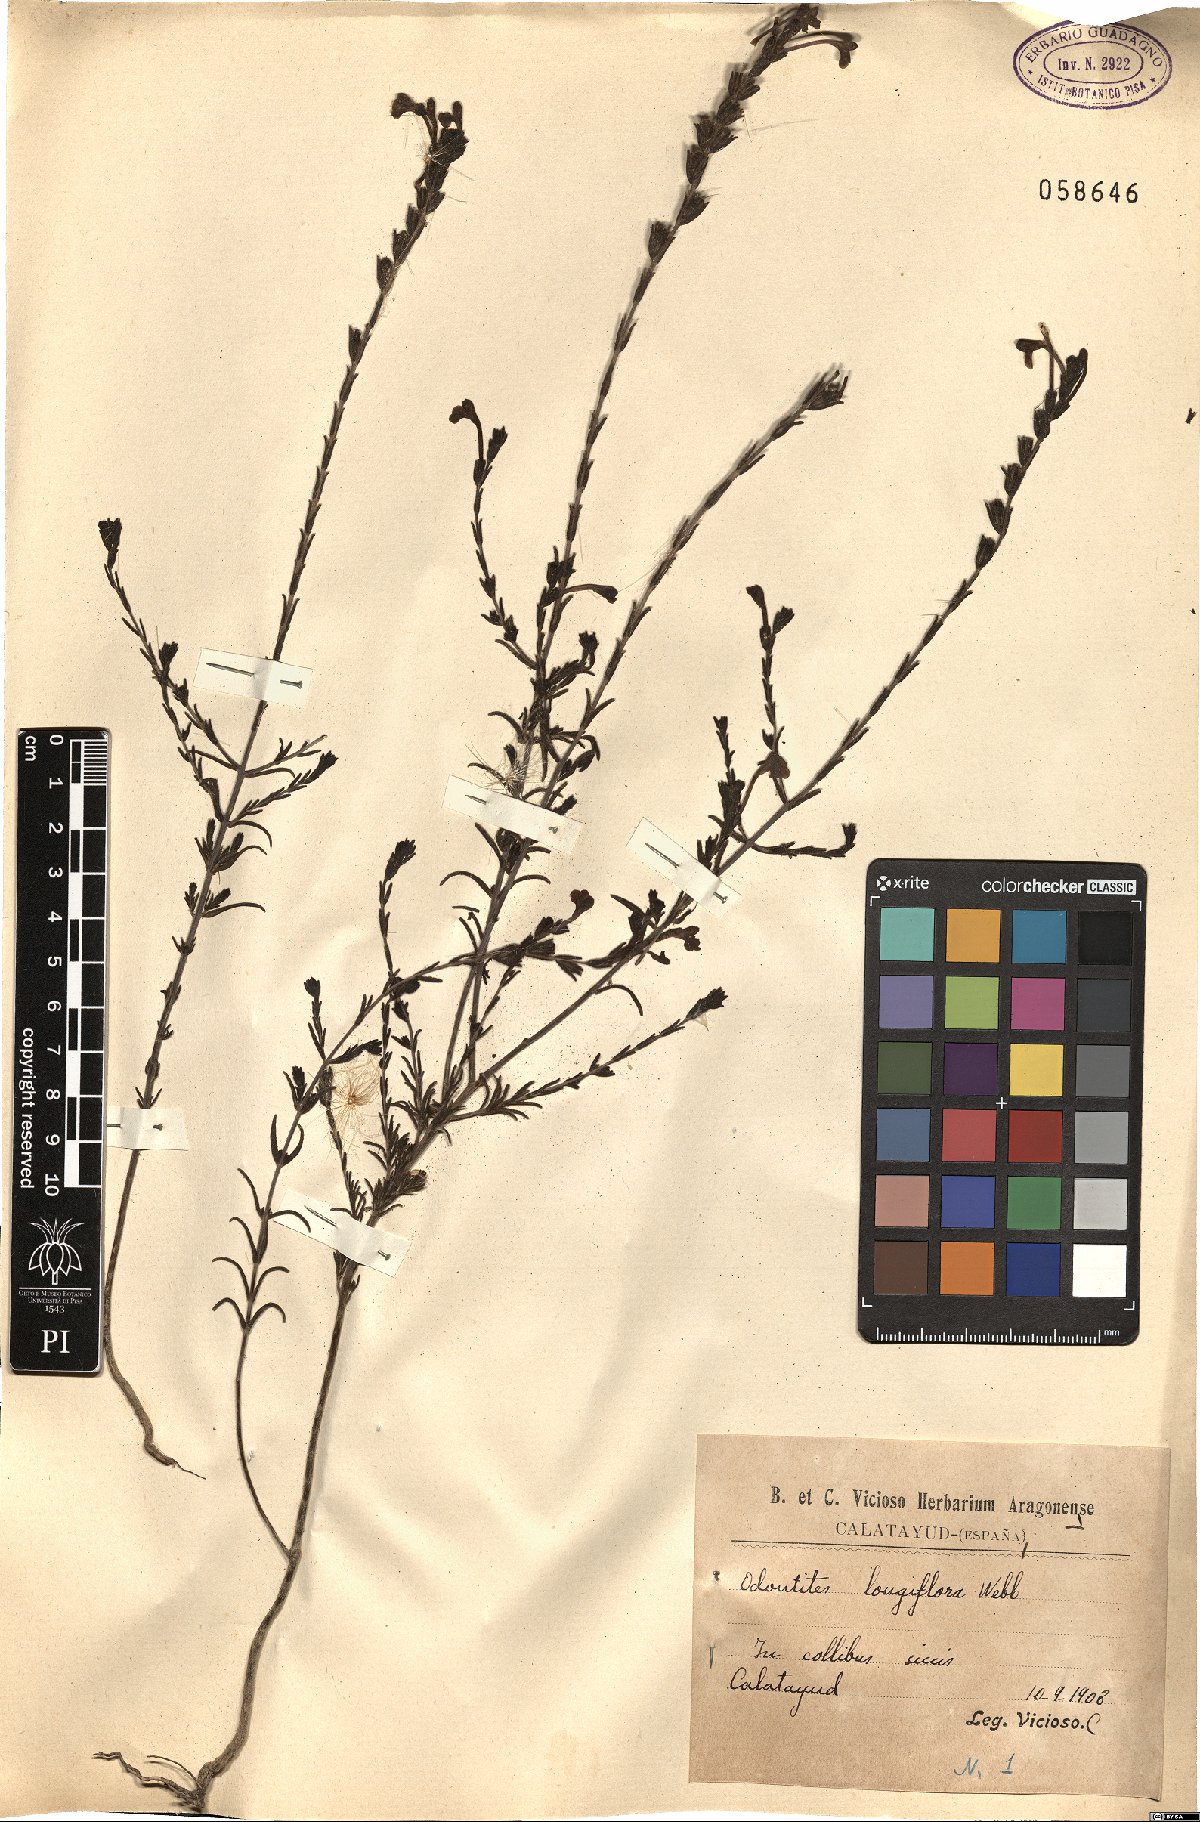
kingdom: Plantae
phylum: Tracheophyta
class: Magnoliopsida
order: Lamiales
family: Orobanchaceae
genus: Odontites
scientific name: Odontites longiflorus
